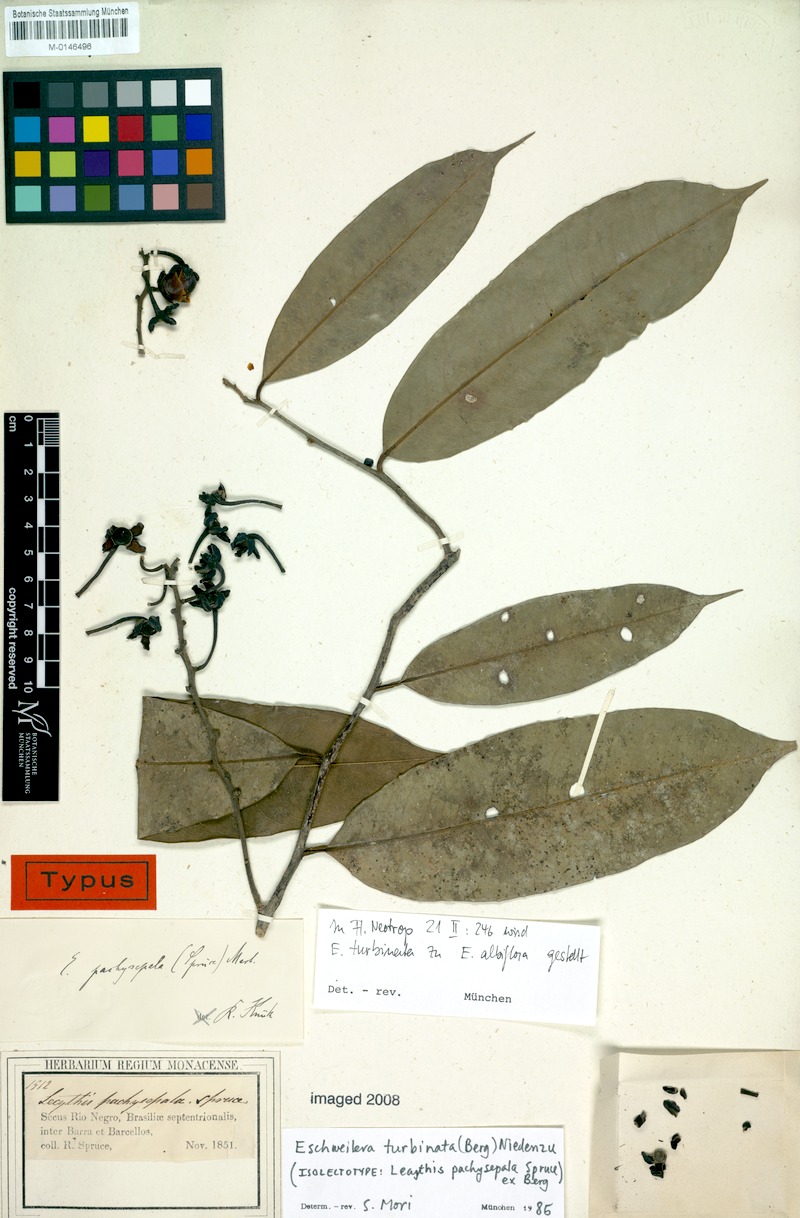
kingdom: Plantae
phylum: Tracheophyta
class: Magnoliopsida
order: Ericales
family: Lecythidaceae
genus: Eschweilera
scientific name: Eschweilera albiflora
